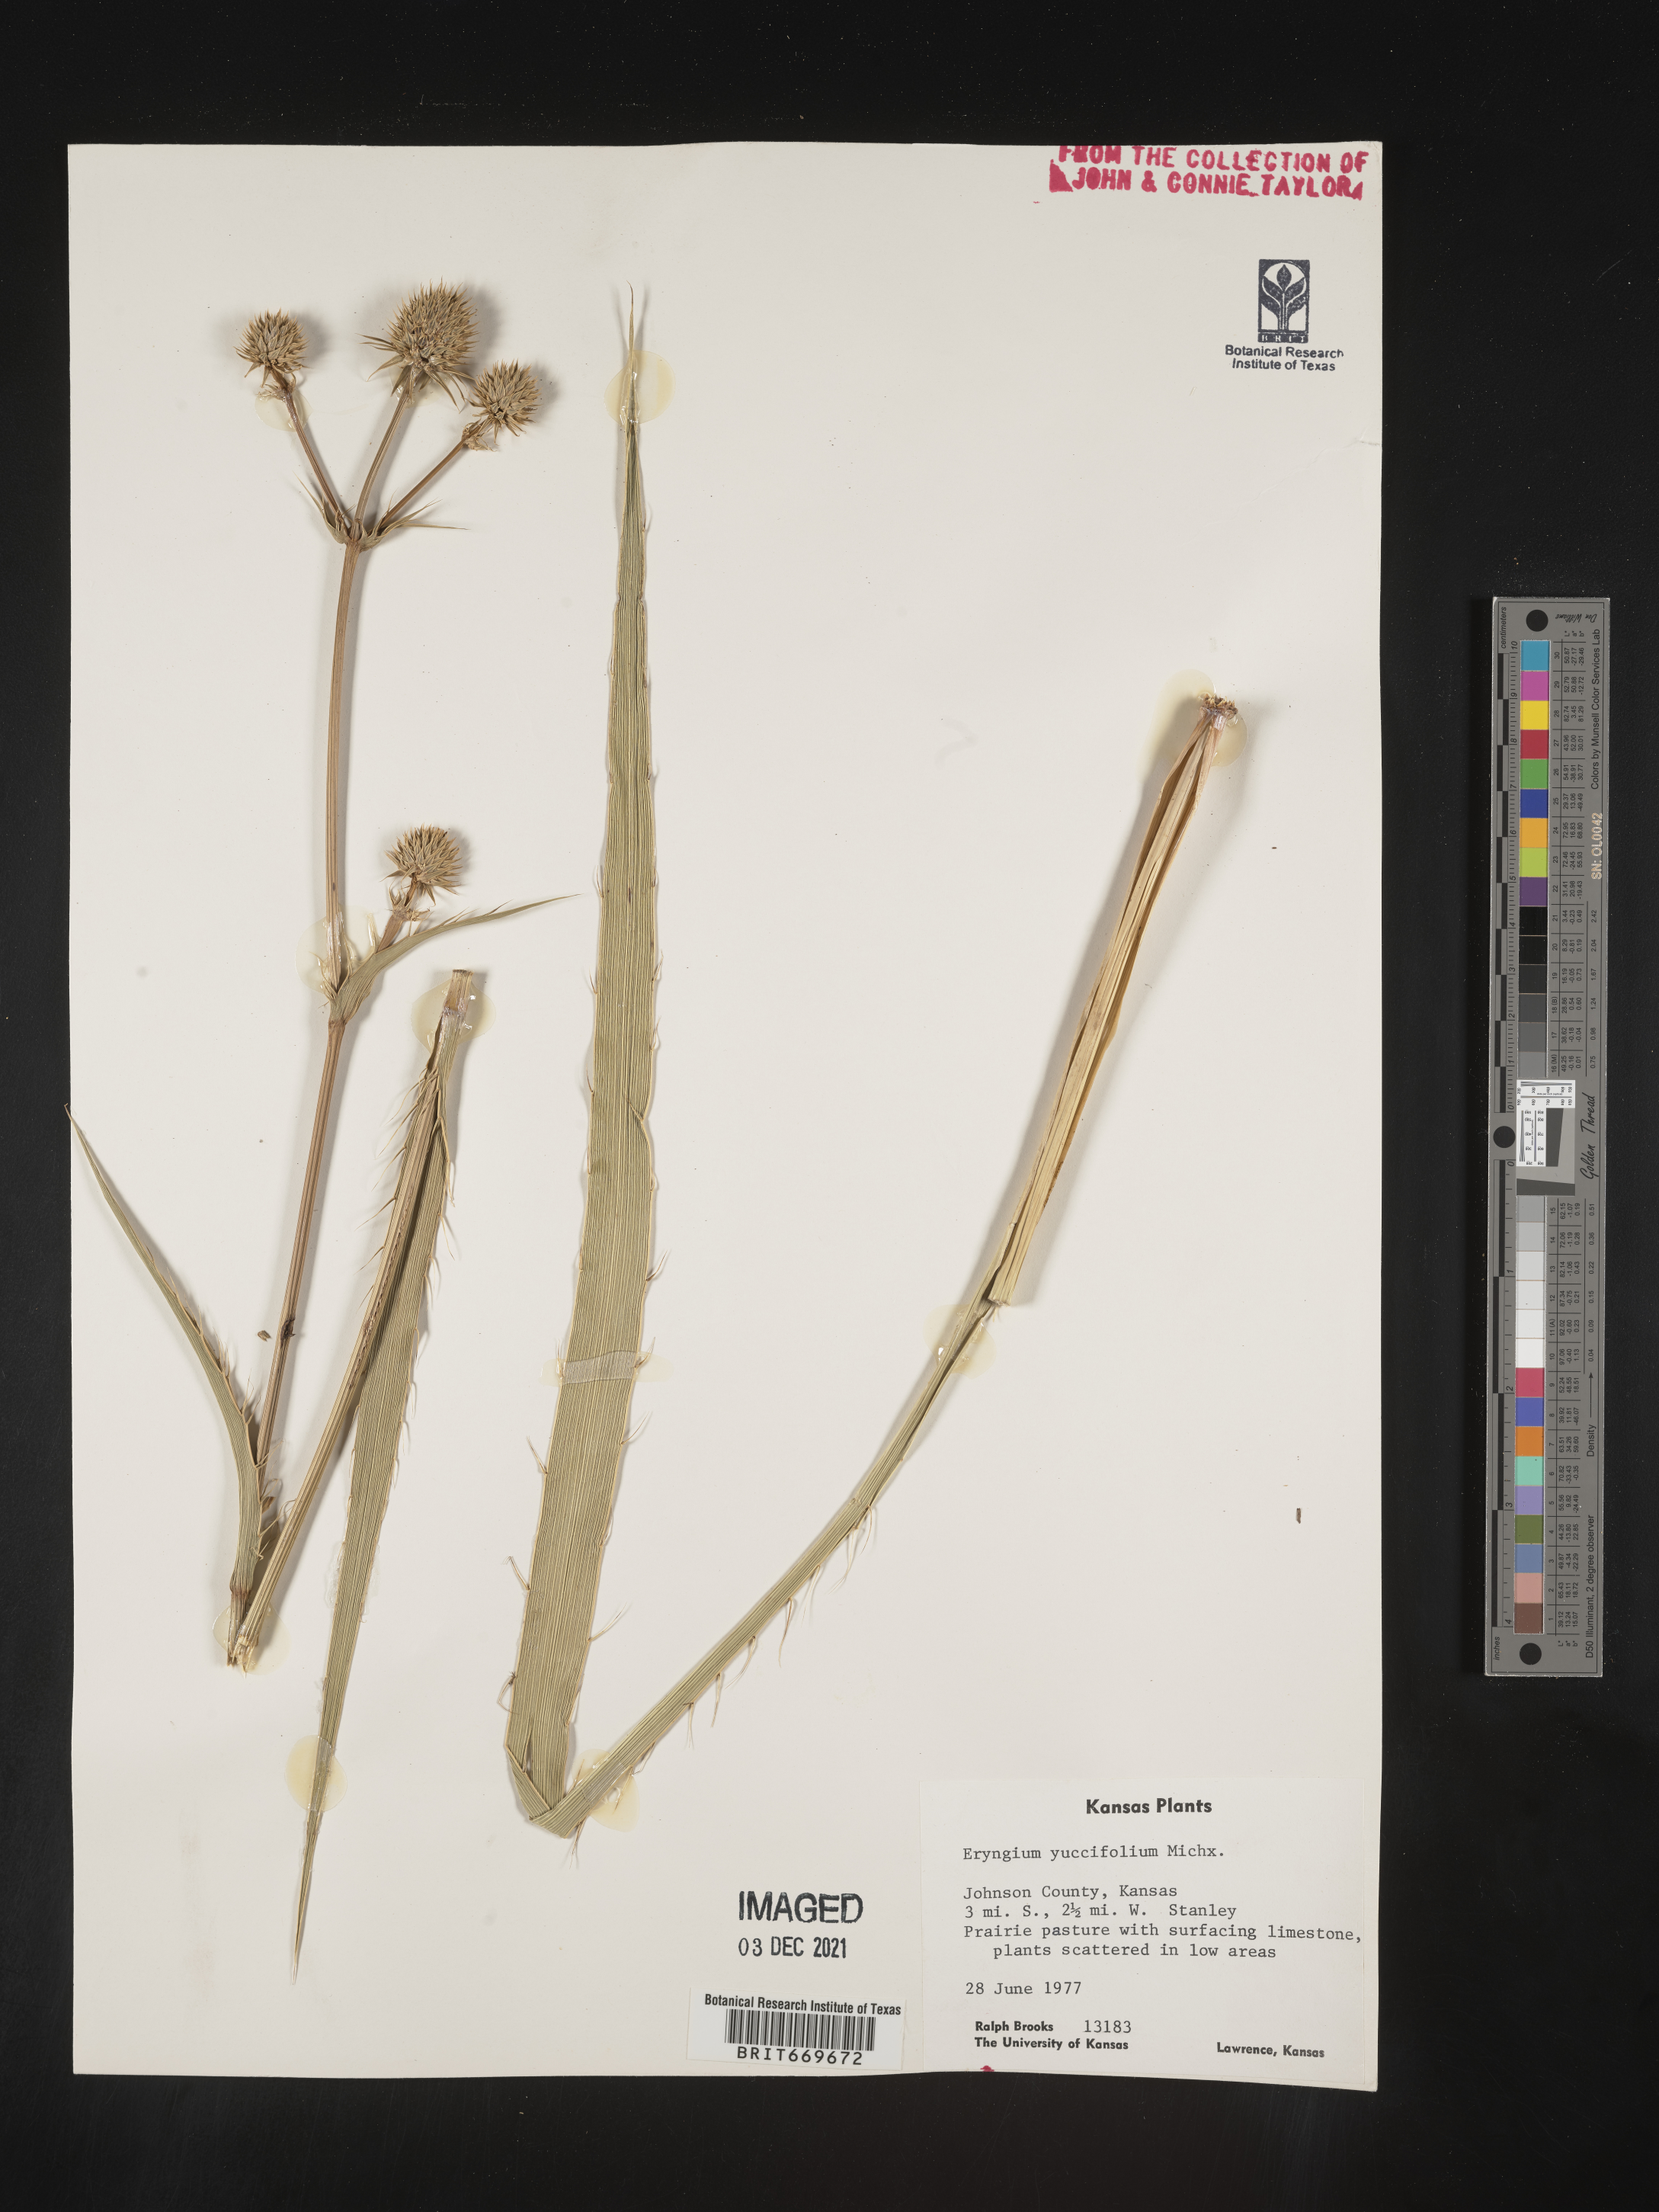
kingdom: Plantae
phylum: Tracheophyta
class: Magnoliopsida
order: Apiales
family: Apiaceae
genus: Eryngium
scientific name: Eryngium yuccifolium
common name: Button eryngo
